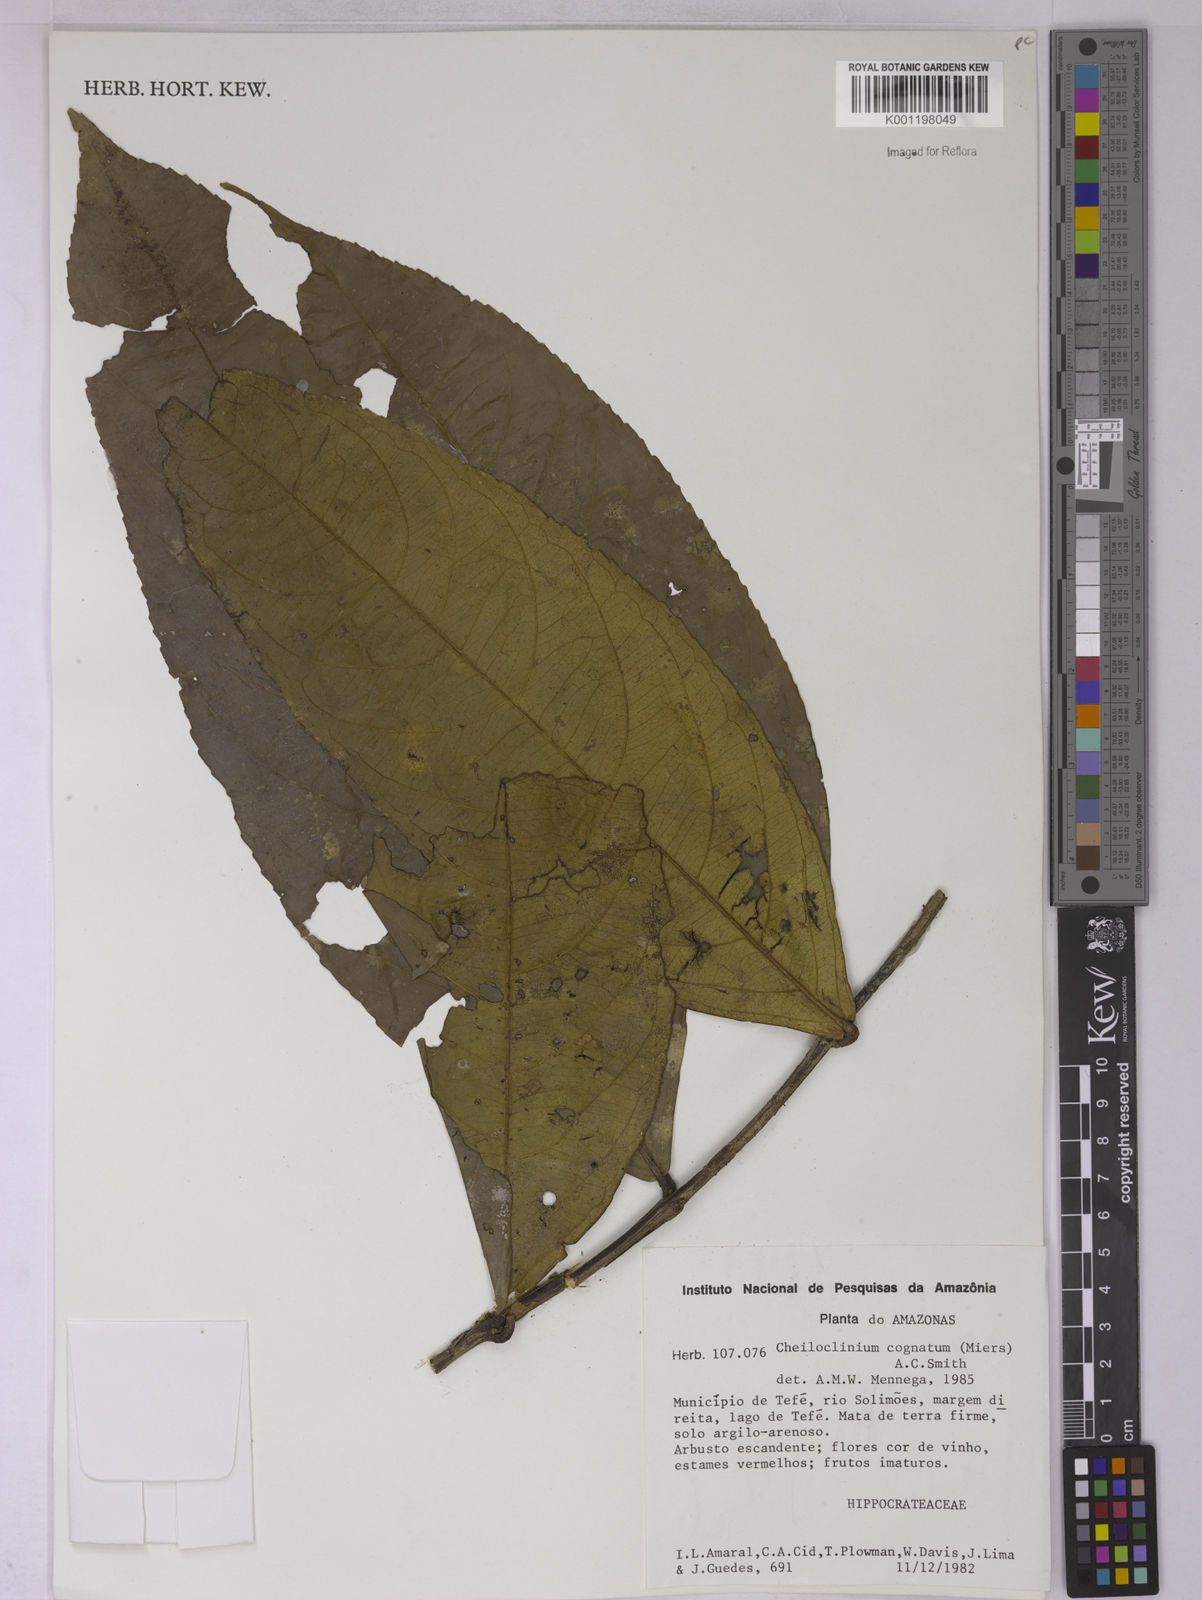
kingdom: Plantae
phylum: Tracheophyta
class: Magnoliopsida
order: Celastrales
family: Celastraceae
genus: Cheiloclinium
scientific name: Cheiloclinium cognatum
